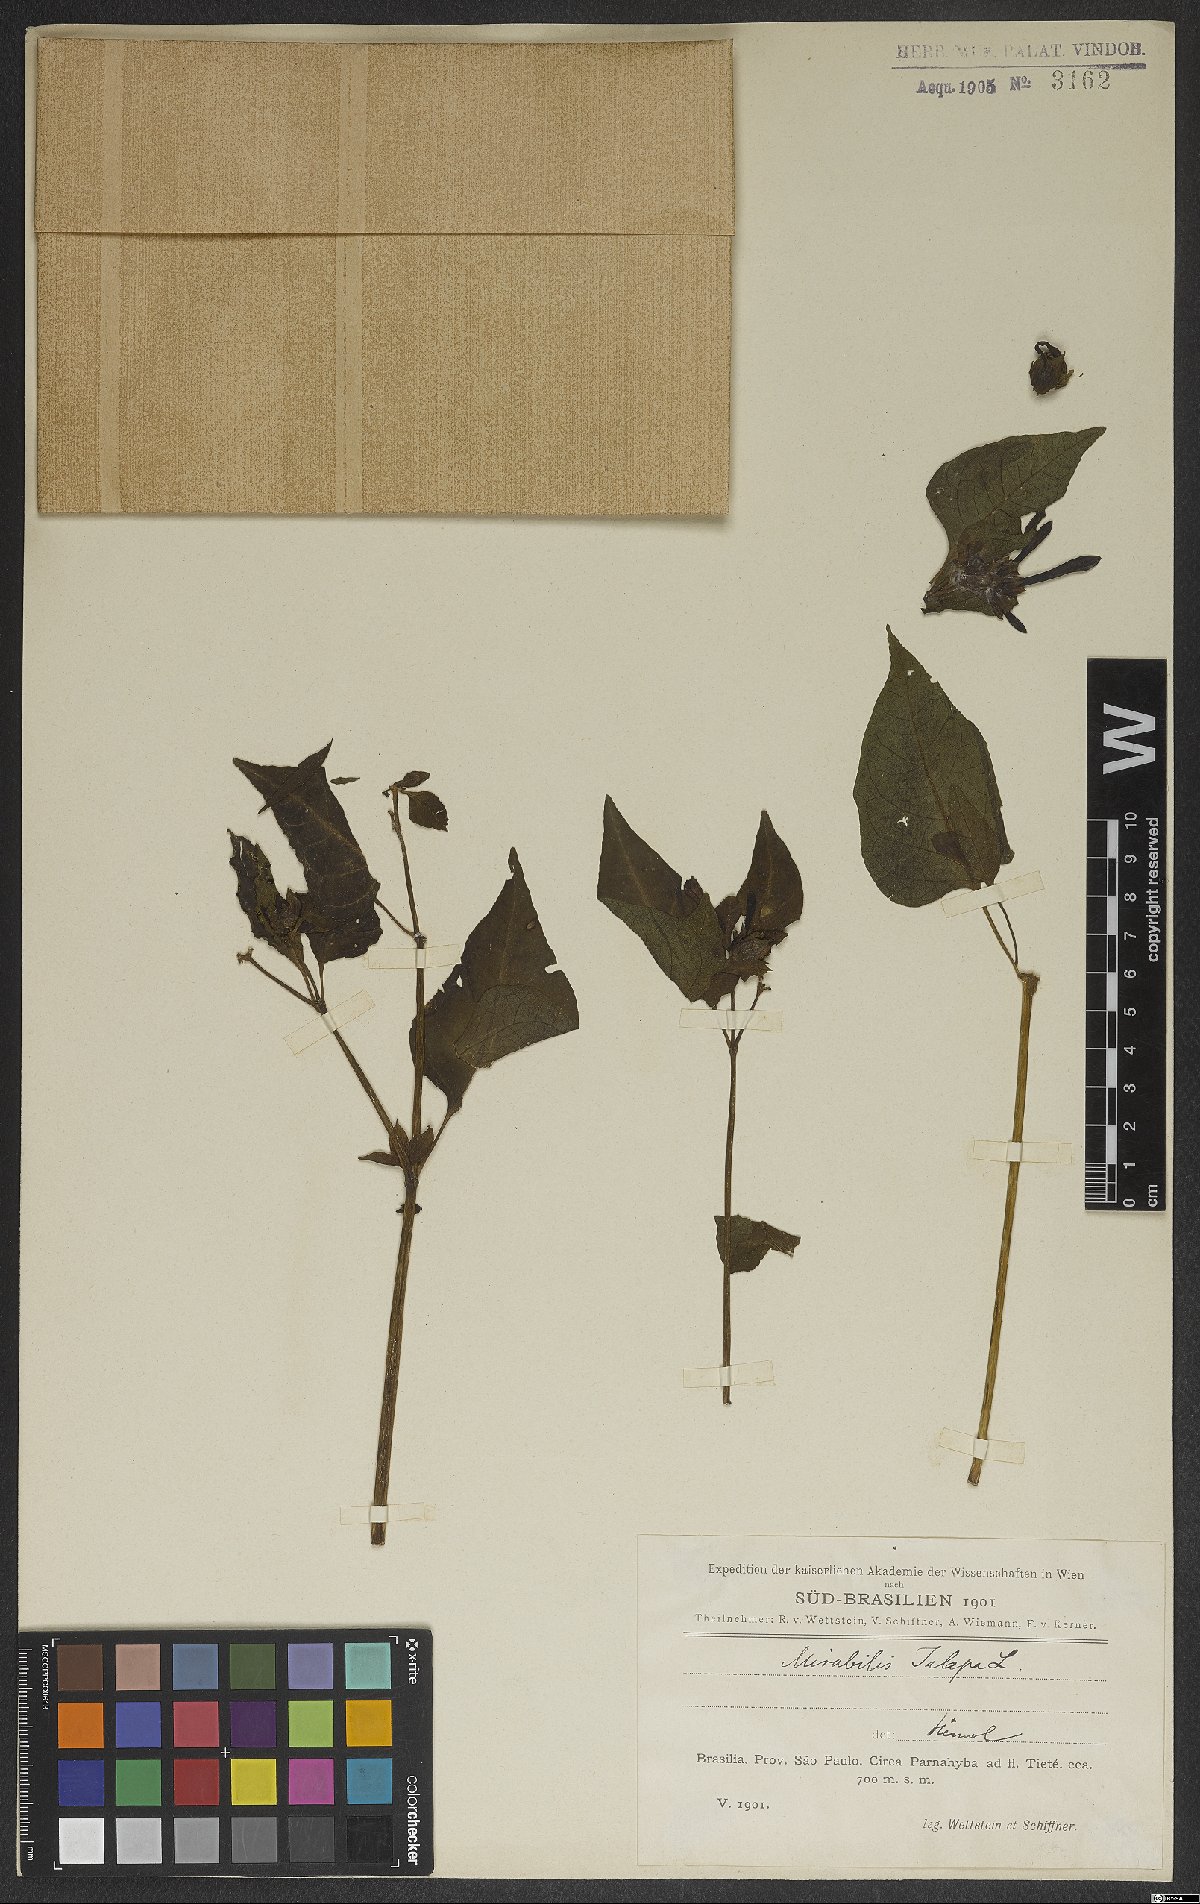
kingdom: Plantae
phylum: Tracheophyta
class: Magnoliopsida
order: Caryophyllales
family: Nyctaginaceae
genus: Mirabilis
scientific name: Mirabilis jalapa
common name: Marvel-of-peru
